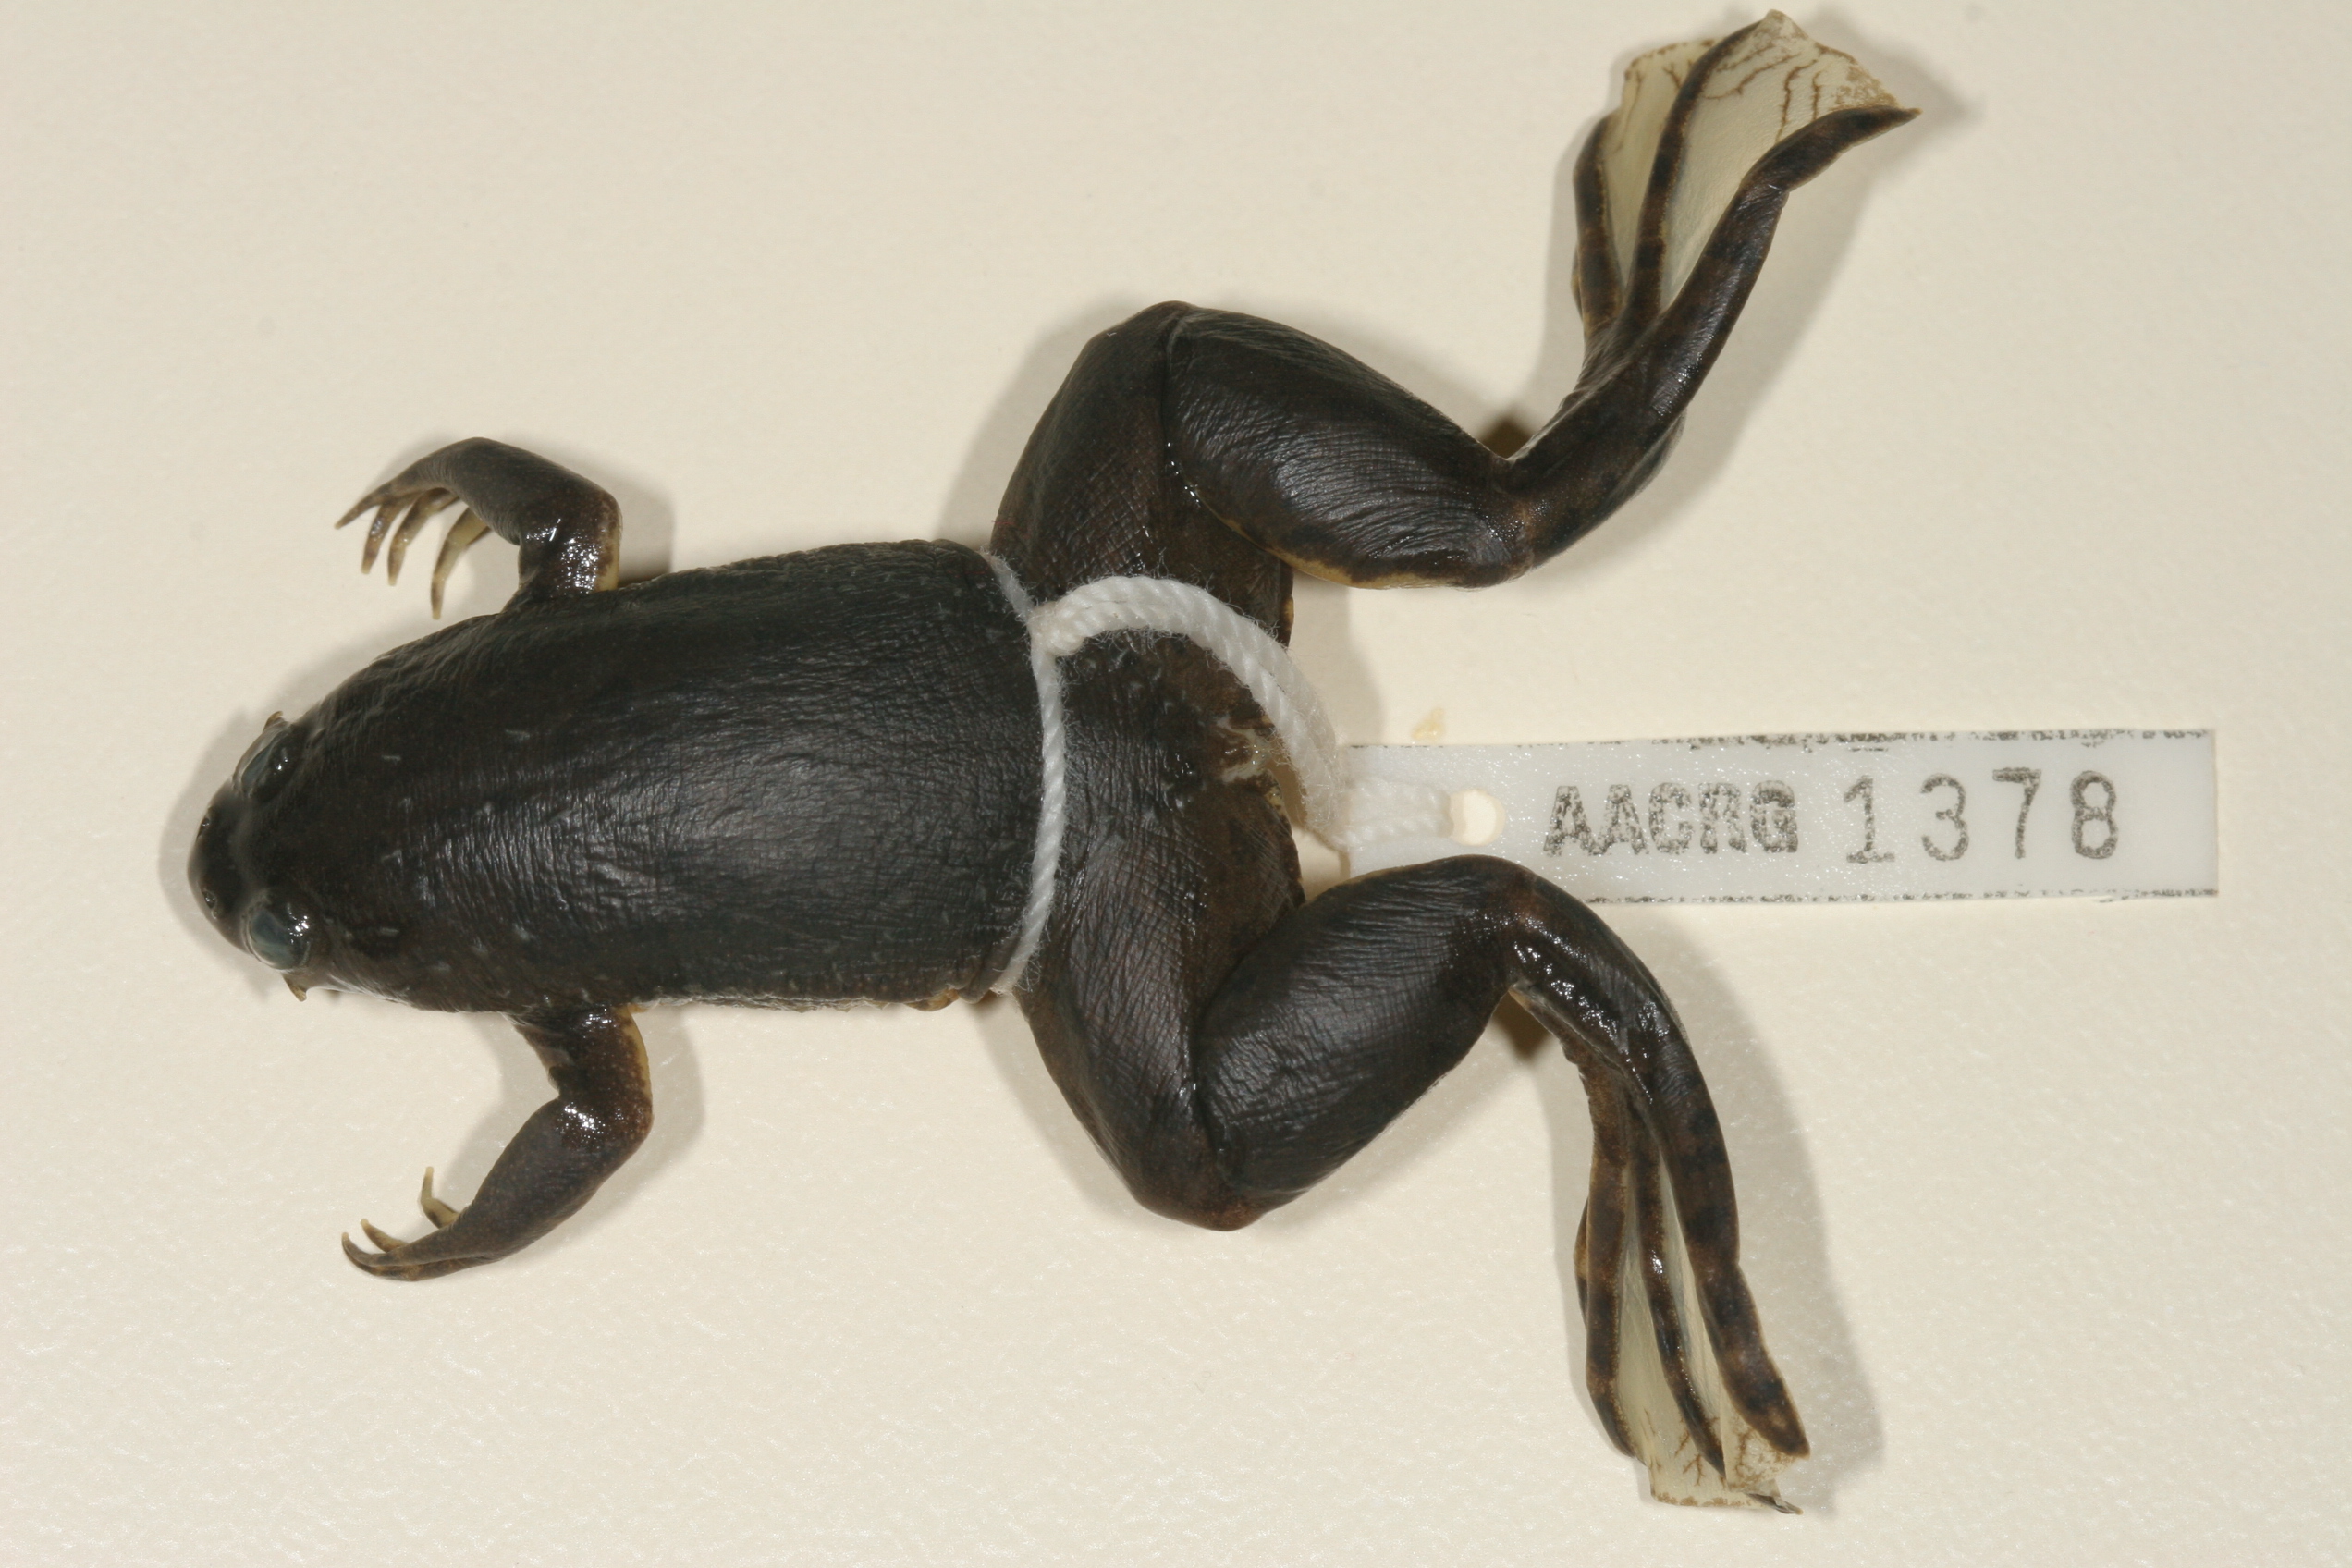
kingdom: Animalia
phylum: Chordata
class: Amphibia
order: Anura
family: Pipidae
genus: Xenopus
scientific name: Xenopus muelleri
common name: Muller's clawed frog
